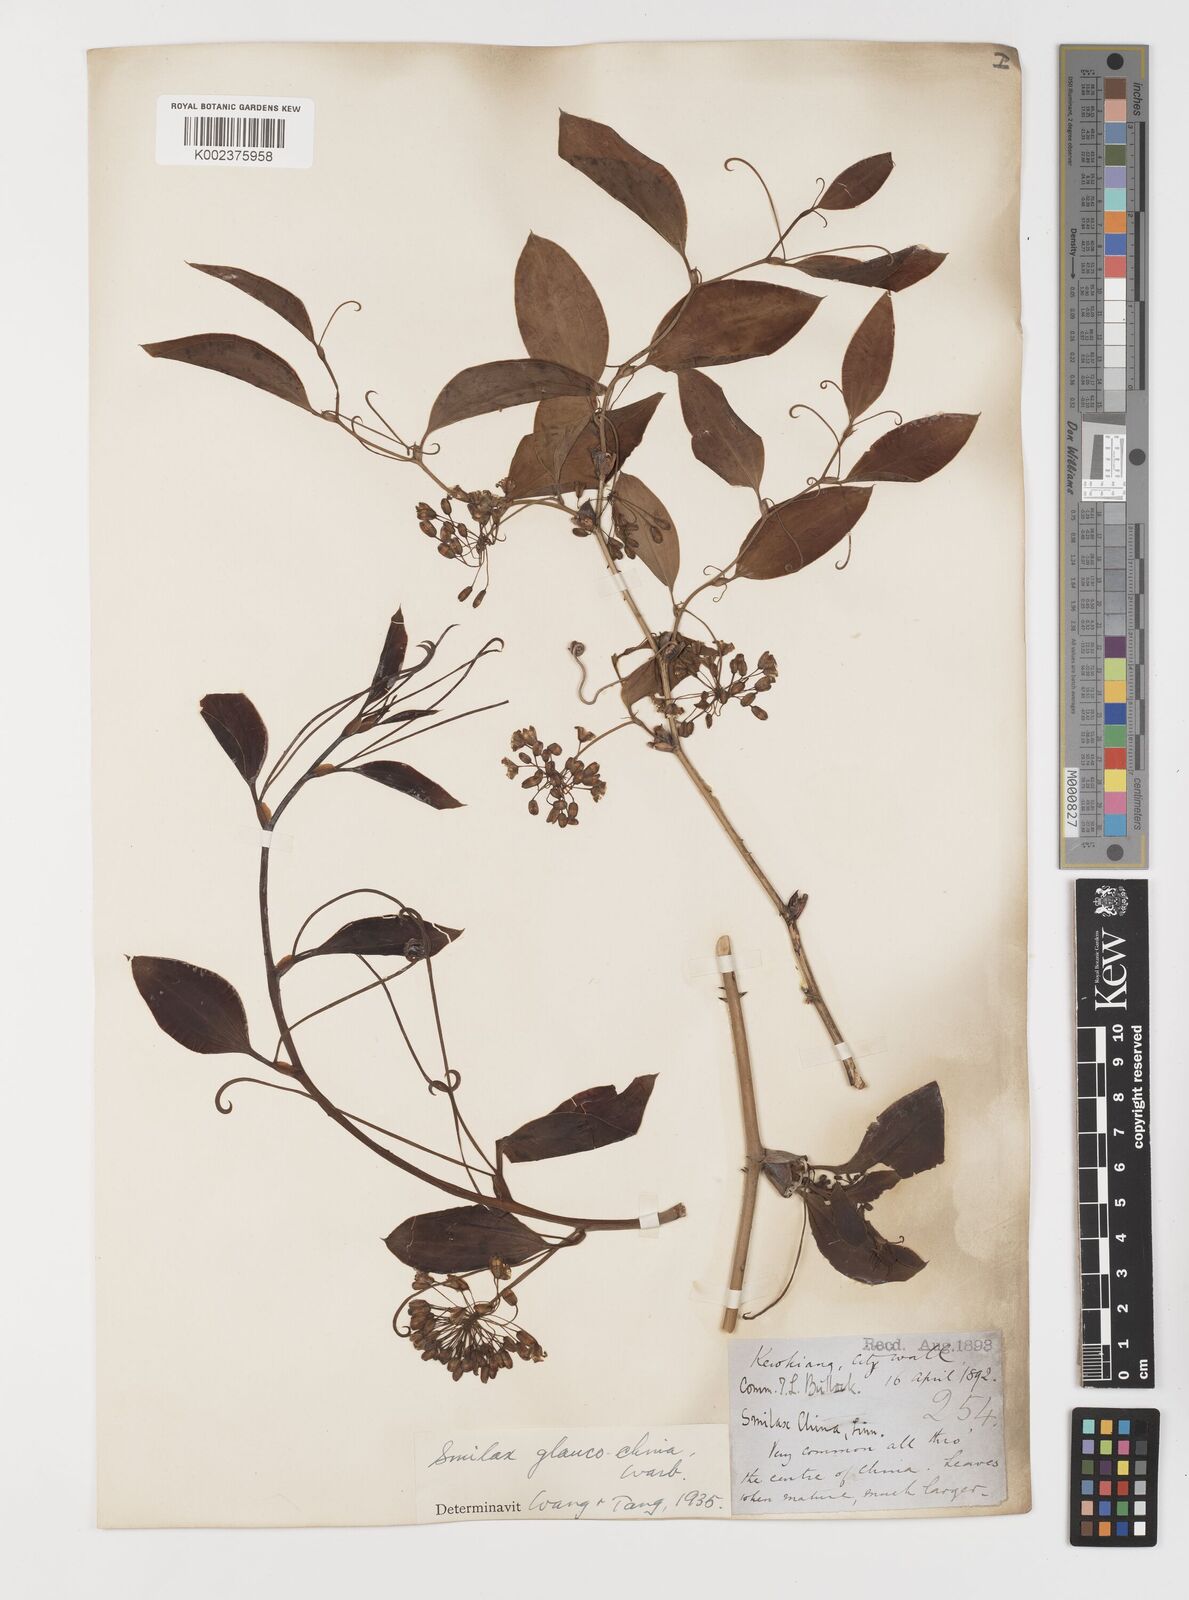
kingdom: Plantae
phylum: Tracheophyta
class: Liliopsida
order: Liliales
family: Smilacaceae
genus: Smilax
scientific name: Smilax glaucochina
